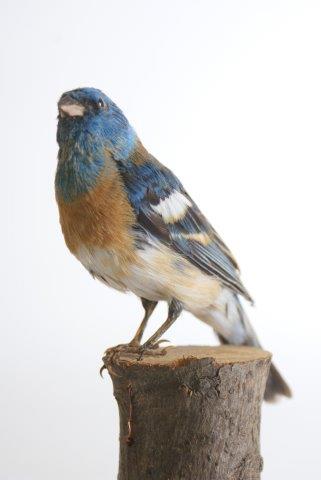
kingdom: Animalia
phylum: Chordata
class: Aves
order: Passeriformes
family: Cardinalidae
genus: Passerina
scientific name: Passerina amoena
